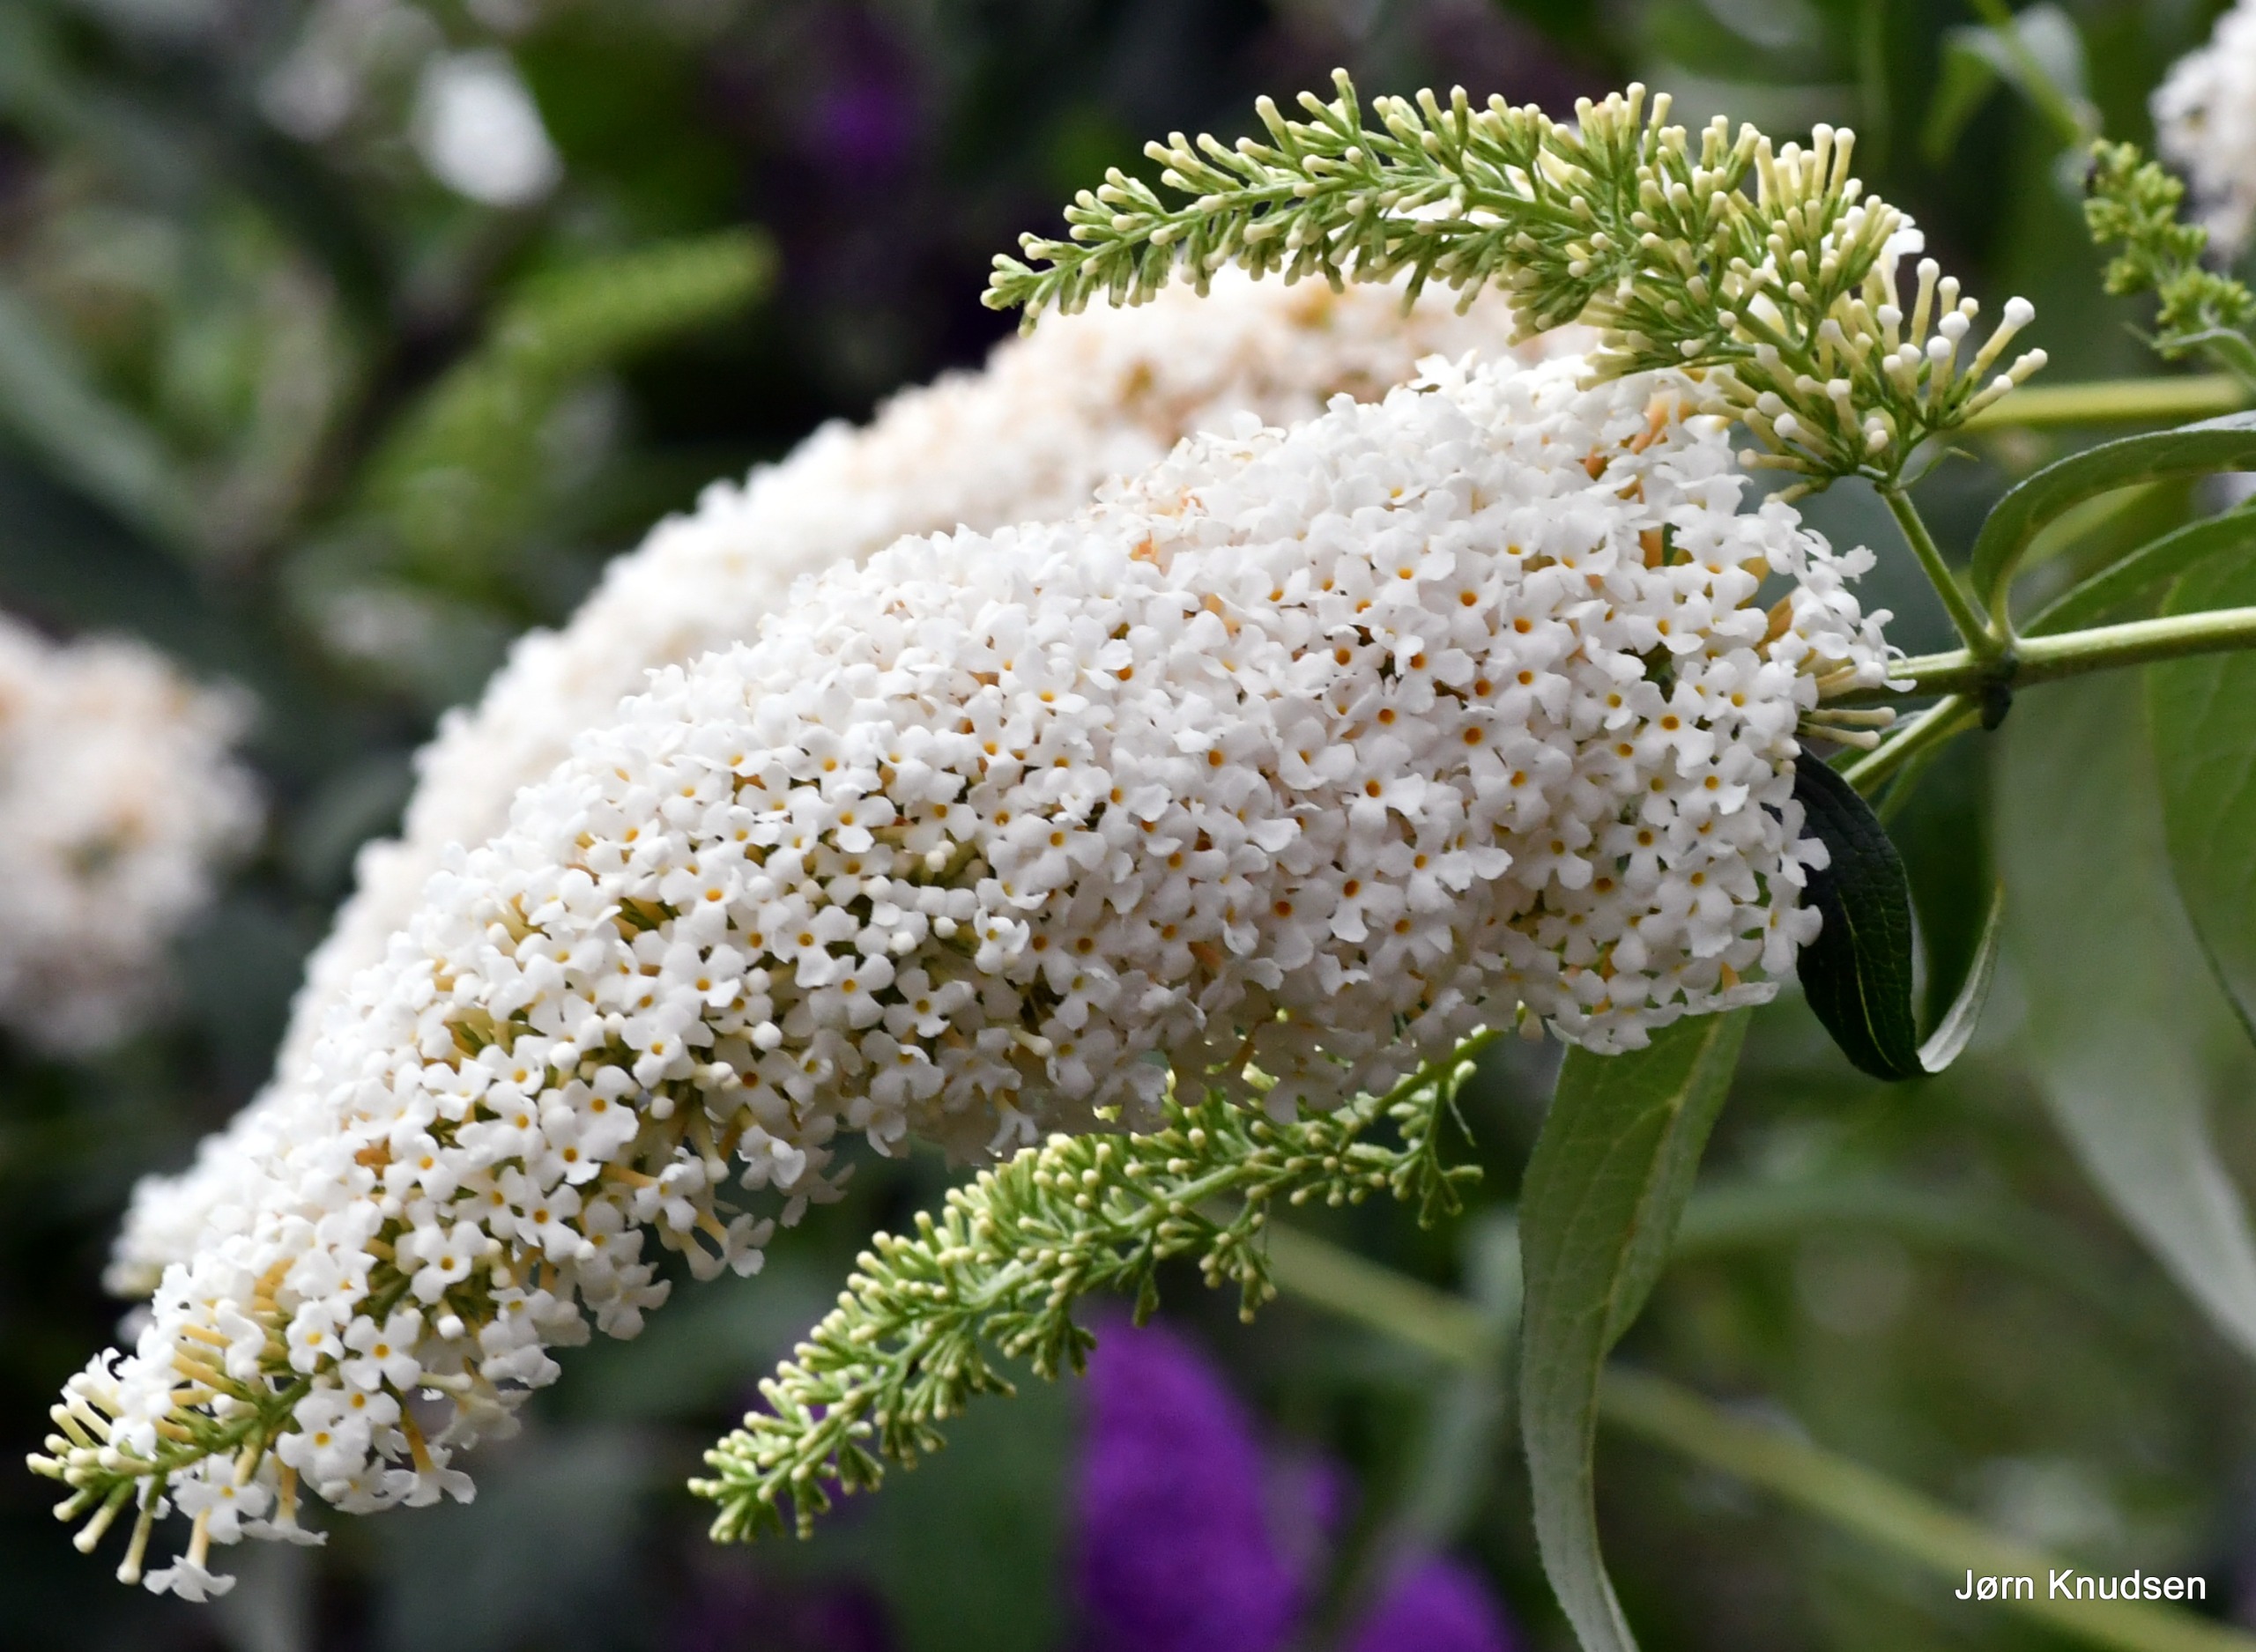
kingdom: Plantae
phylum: Tracheophyta
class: Magnoliopsida
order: Lamiales
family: Scrophulariaceae
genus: Buddleja
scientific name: Buddleja davidii
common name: Sommerfuglebusk
